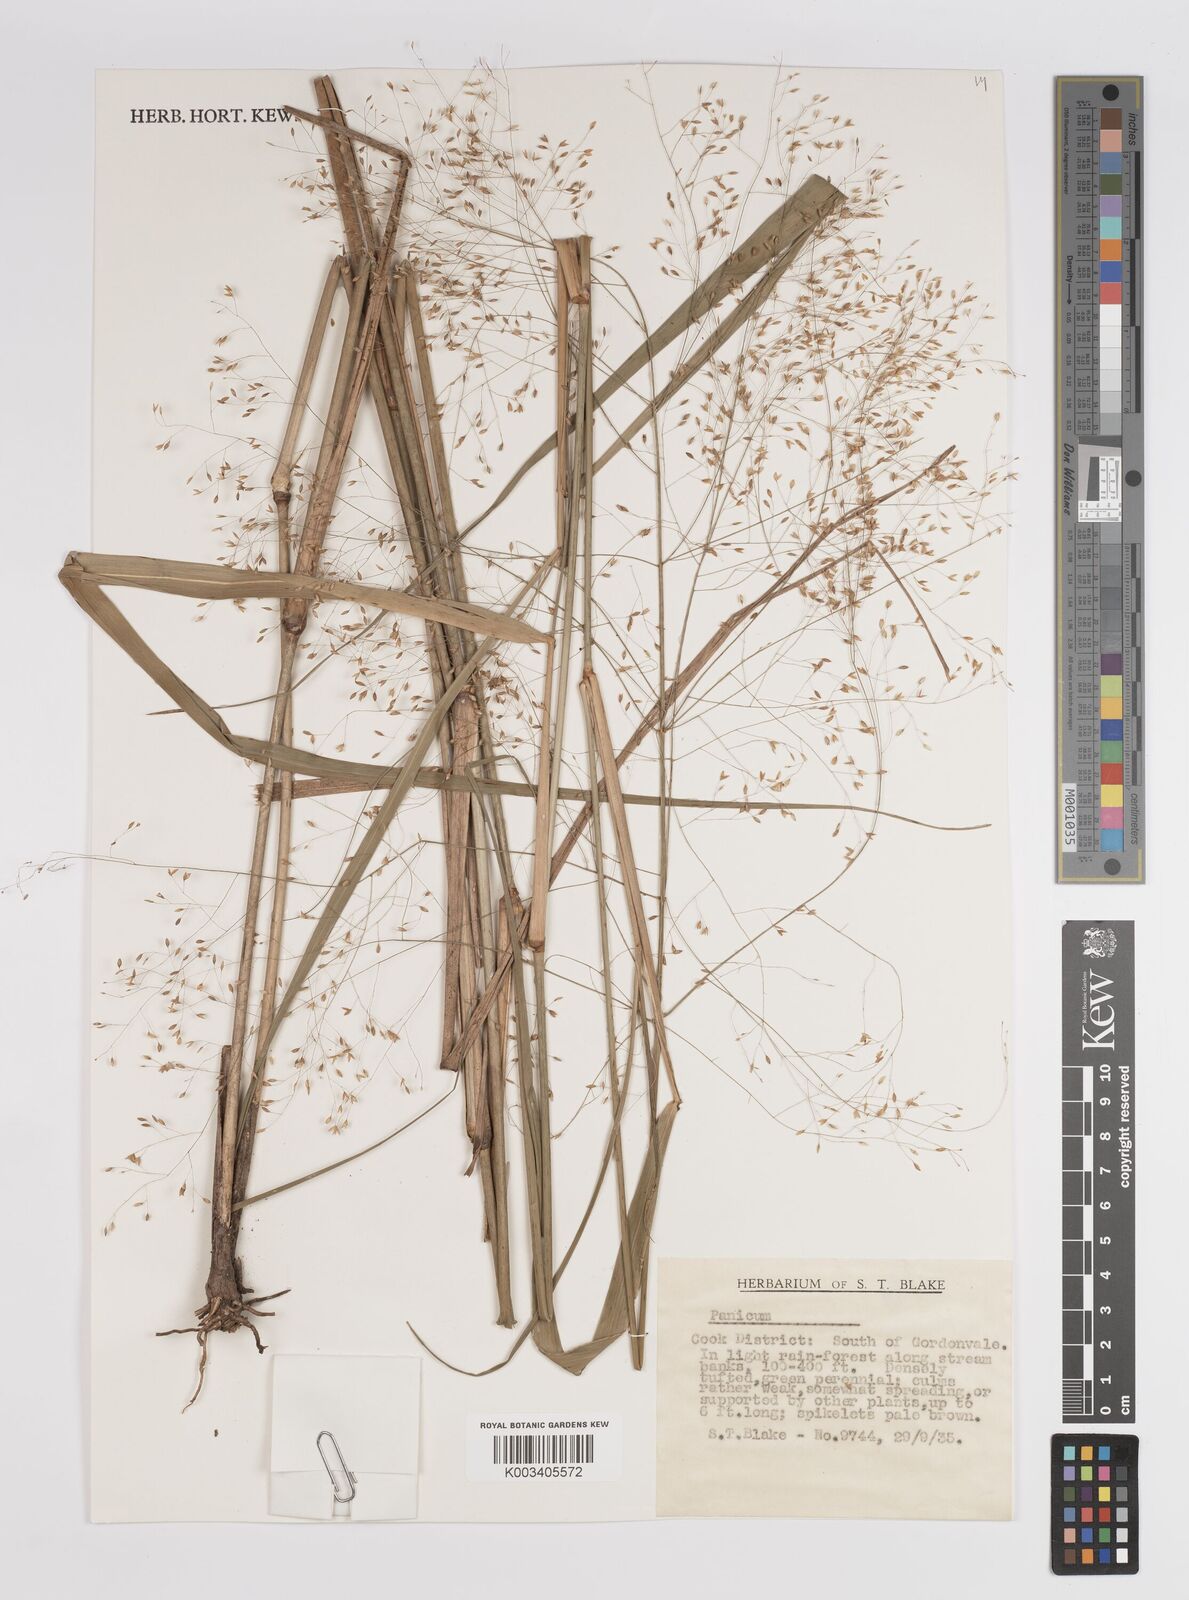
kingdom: Plantae
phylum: Tracheophyta
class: Liliopsida
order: Poales
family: Poaceae
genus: Panicum
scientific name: Panicum
